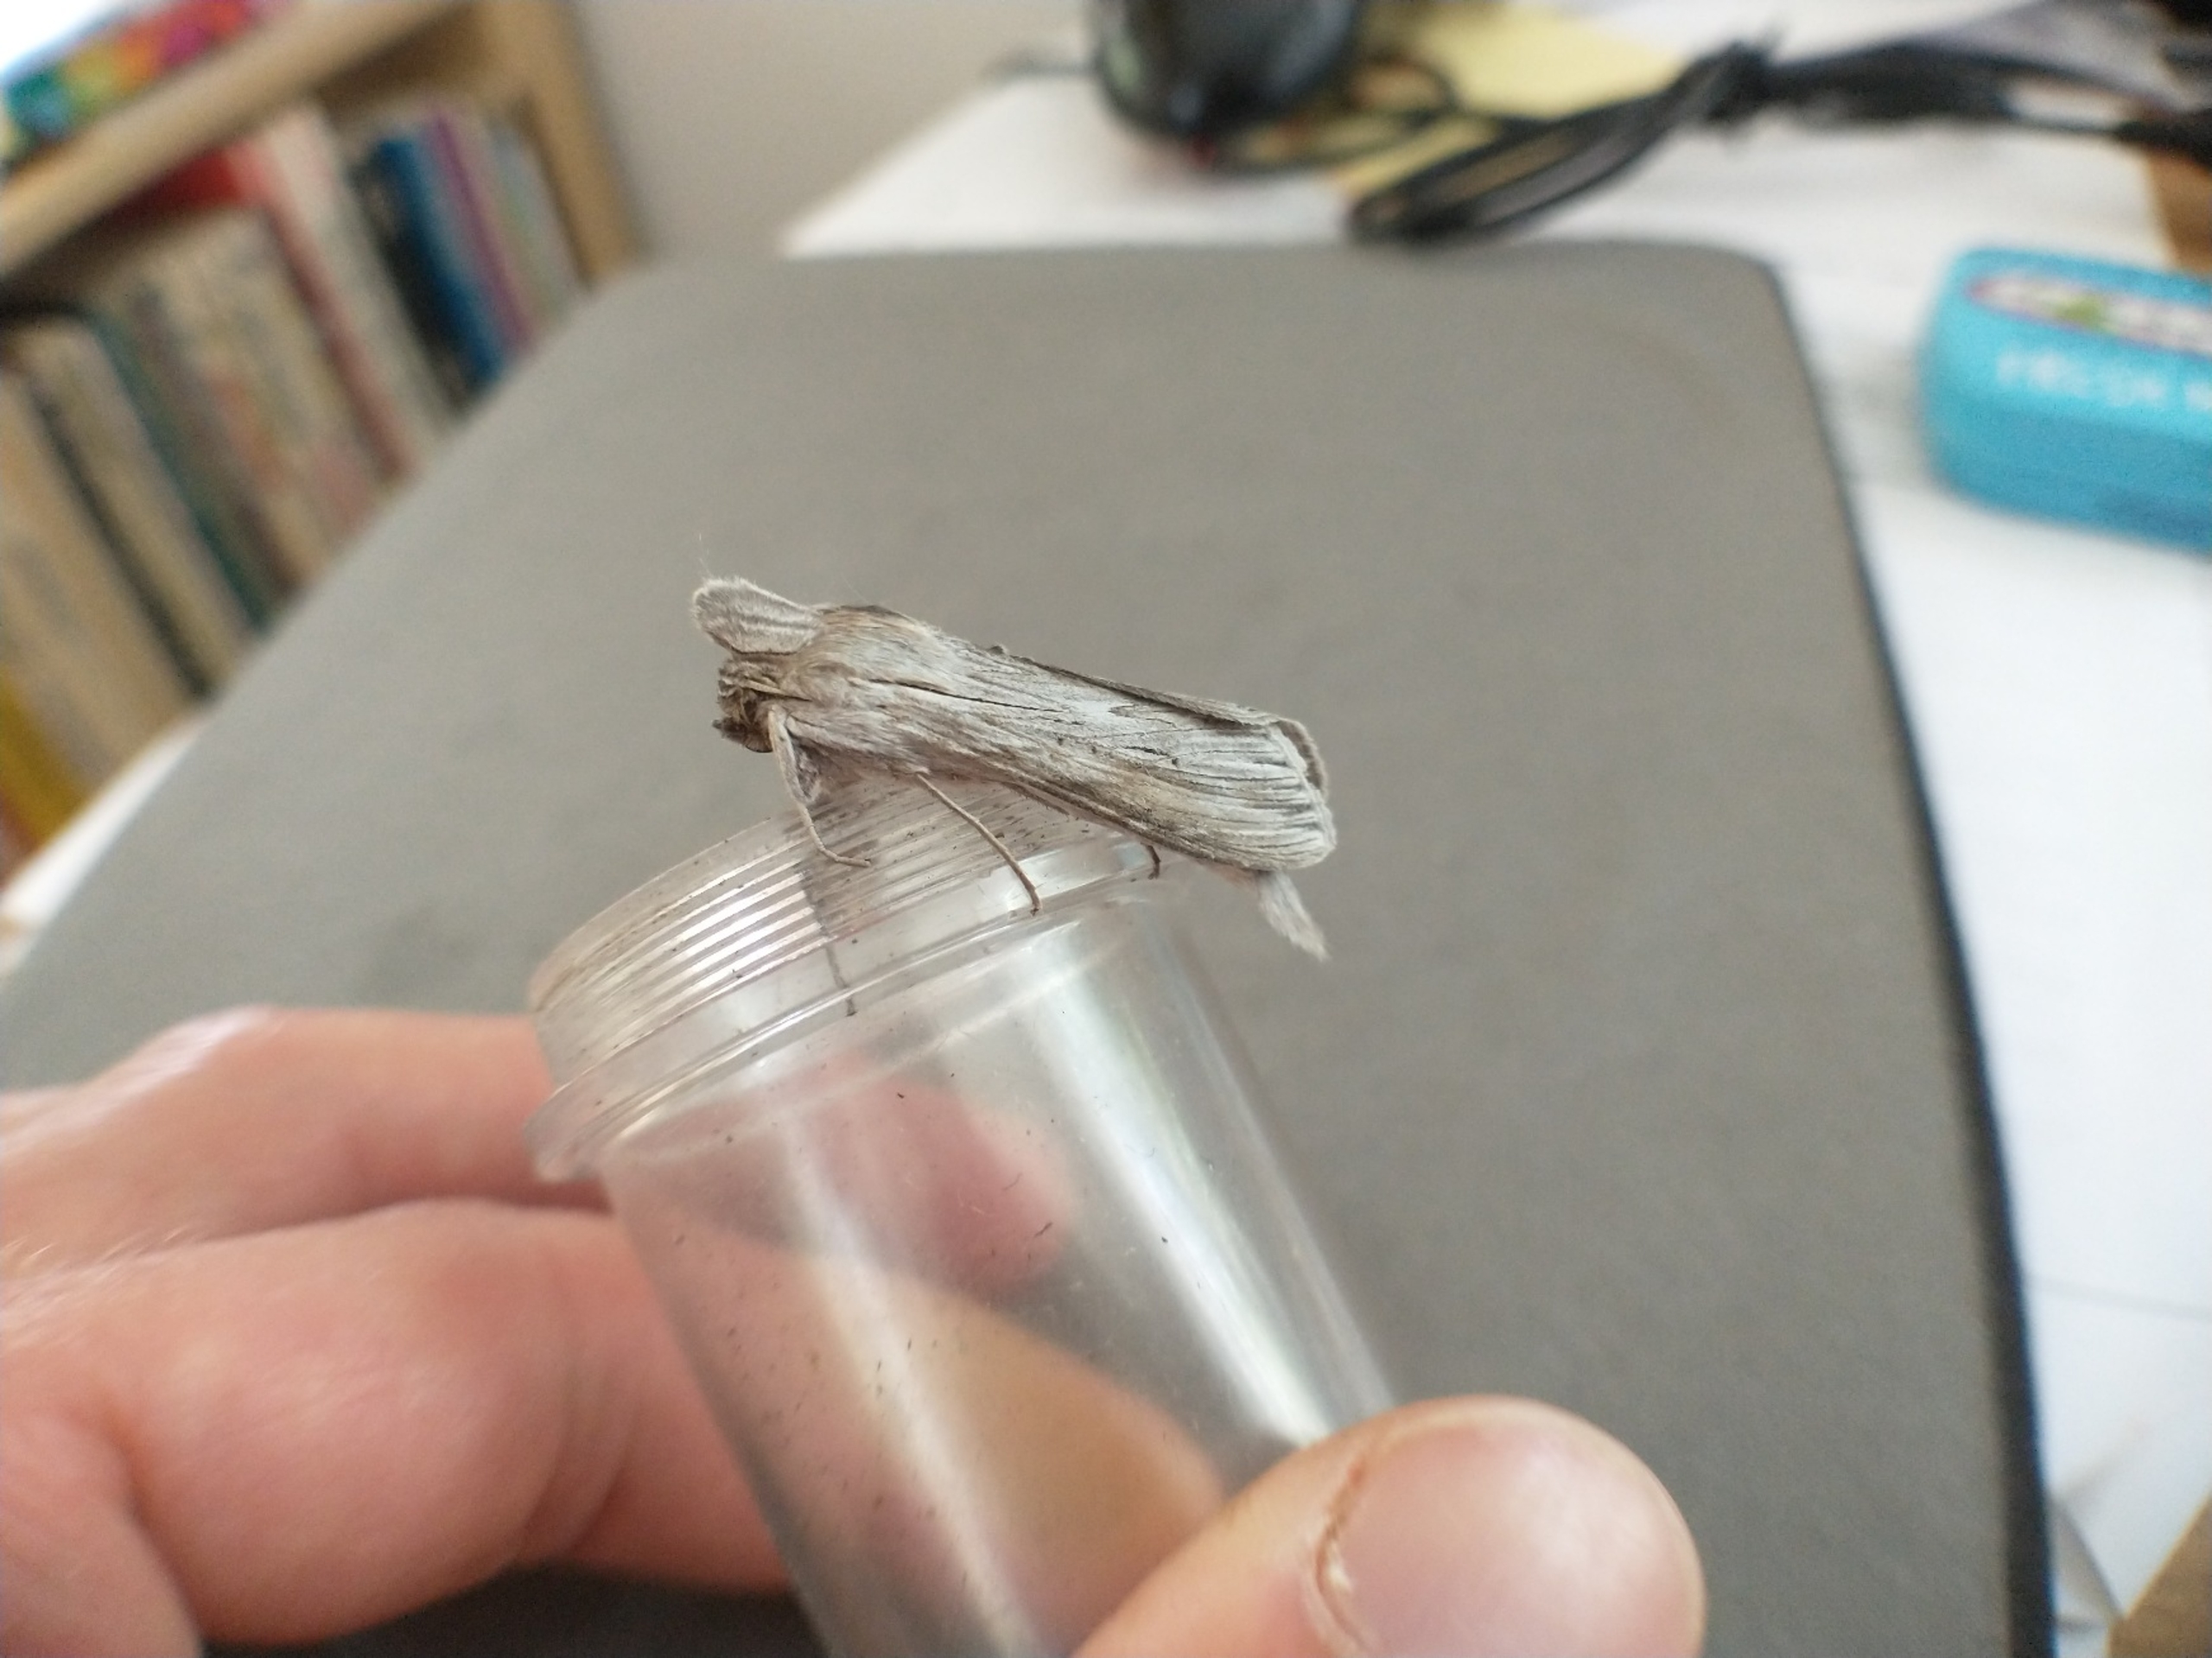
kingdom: Animalia
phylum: Arthropoda
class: Insecta
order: Lepidoptera
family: Noctuidae
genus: Cucullia
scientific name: Cucullia umbratica
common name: Grå hætteugle
